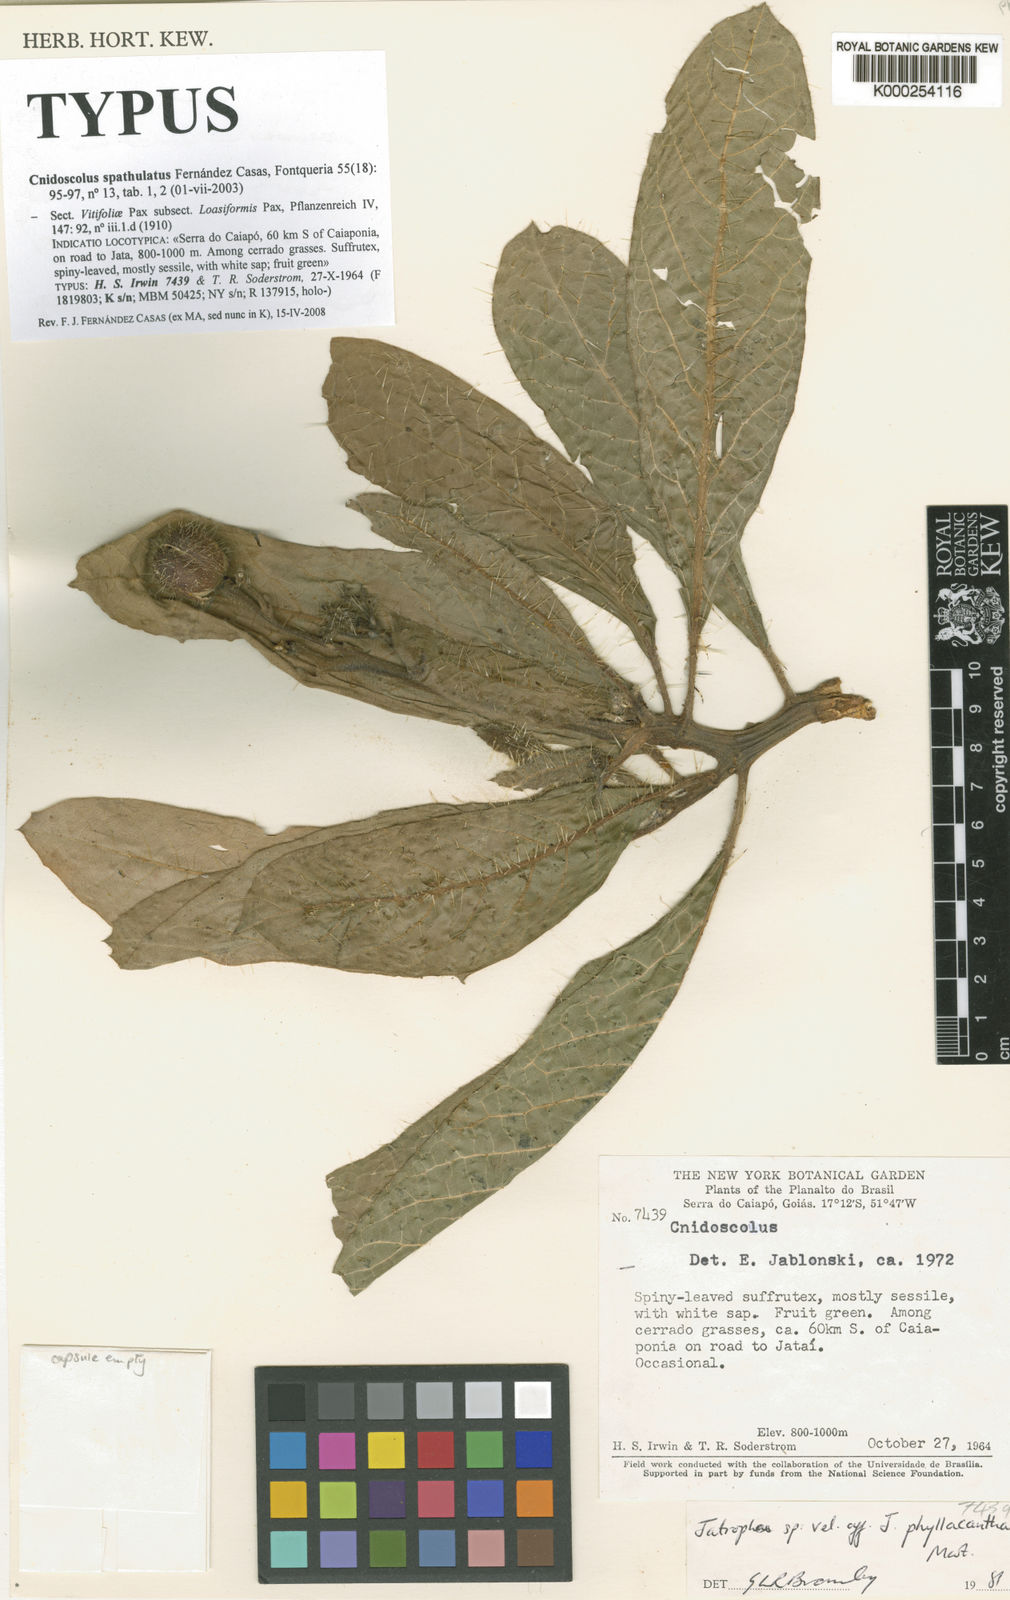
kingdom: Plantae
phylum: Tracheophyta
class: Magnoliopsida
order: Malpighiales
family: Euphorbiaceae
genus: Cnidoscolus
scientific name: Cnidoscolus albomaculatus
